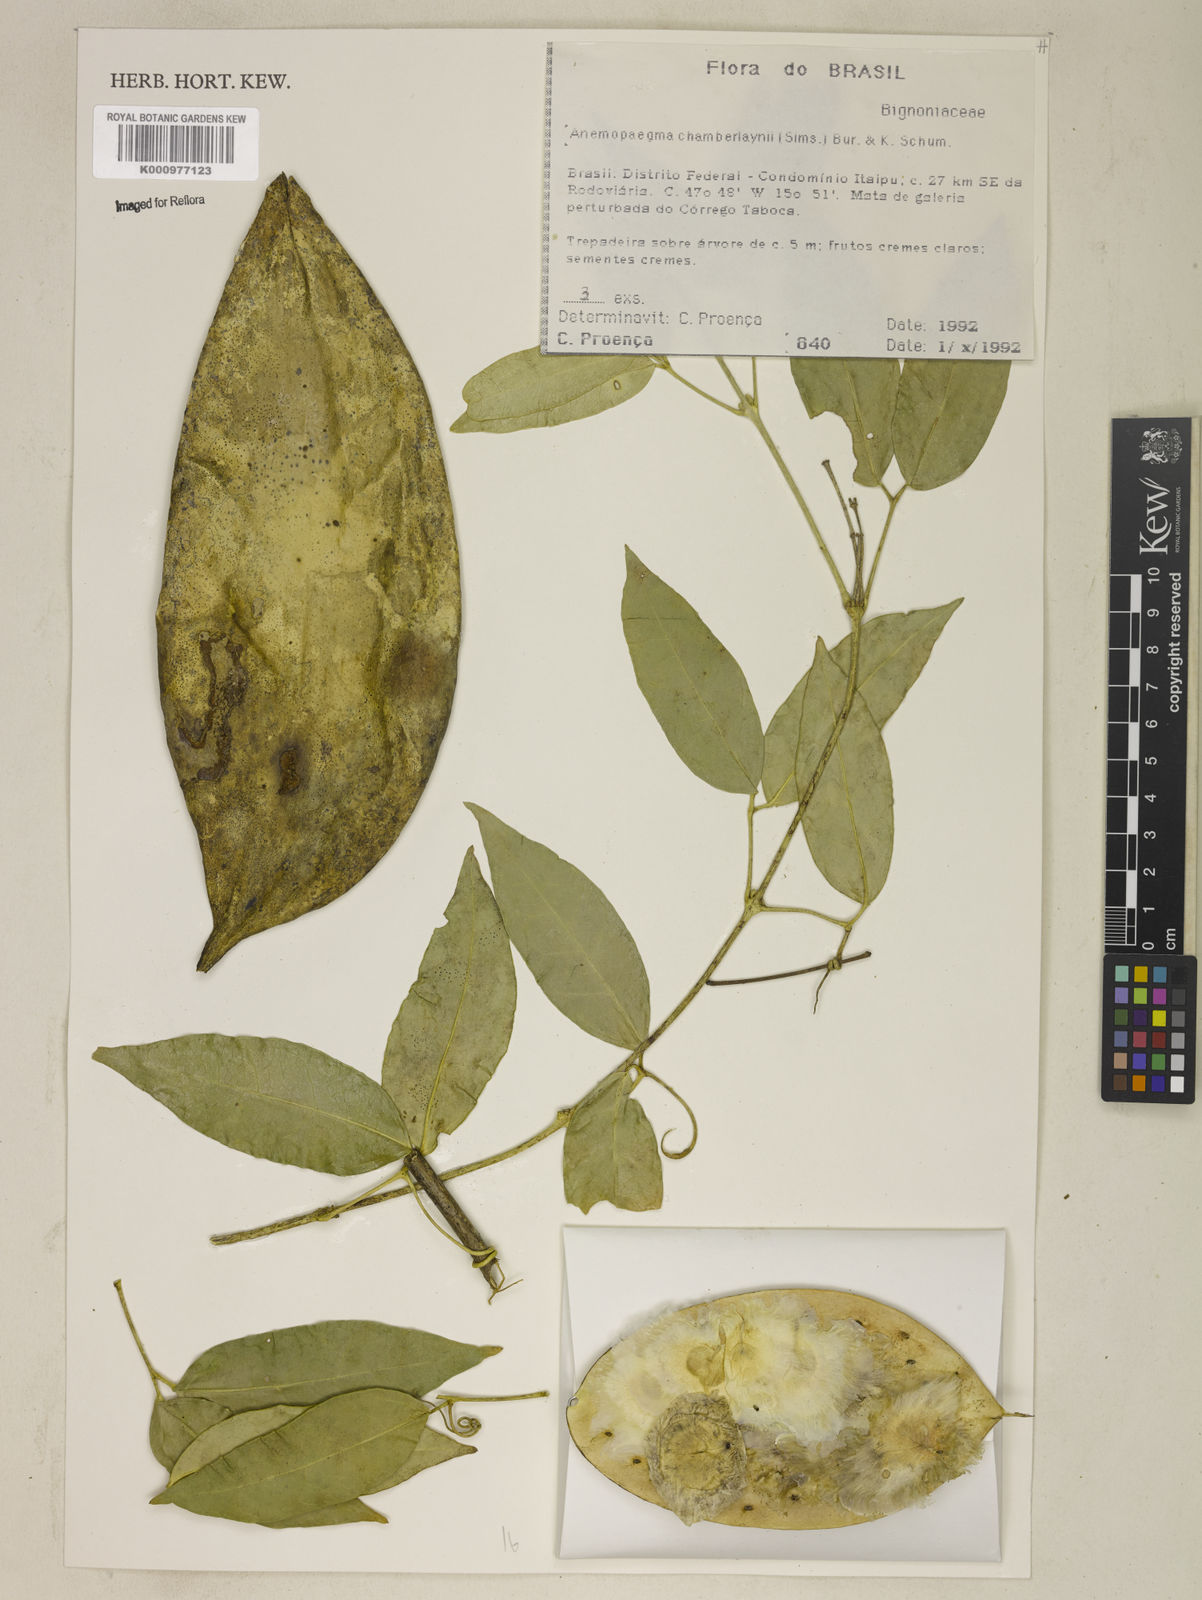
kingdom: Plantae
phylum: Tracheophyta
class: Magnoliopsida
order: Lamiales
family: Bignoniaceae
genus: Anemopaegma
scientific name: Anemopaegma chamberlaynii
